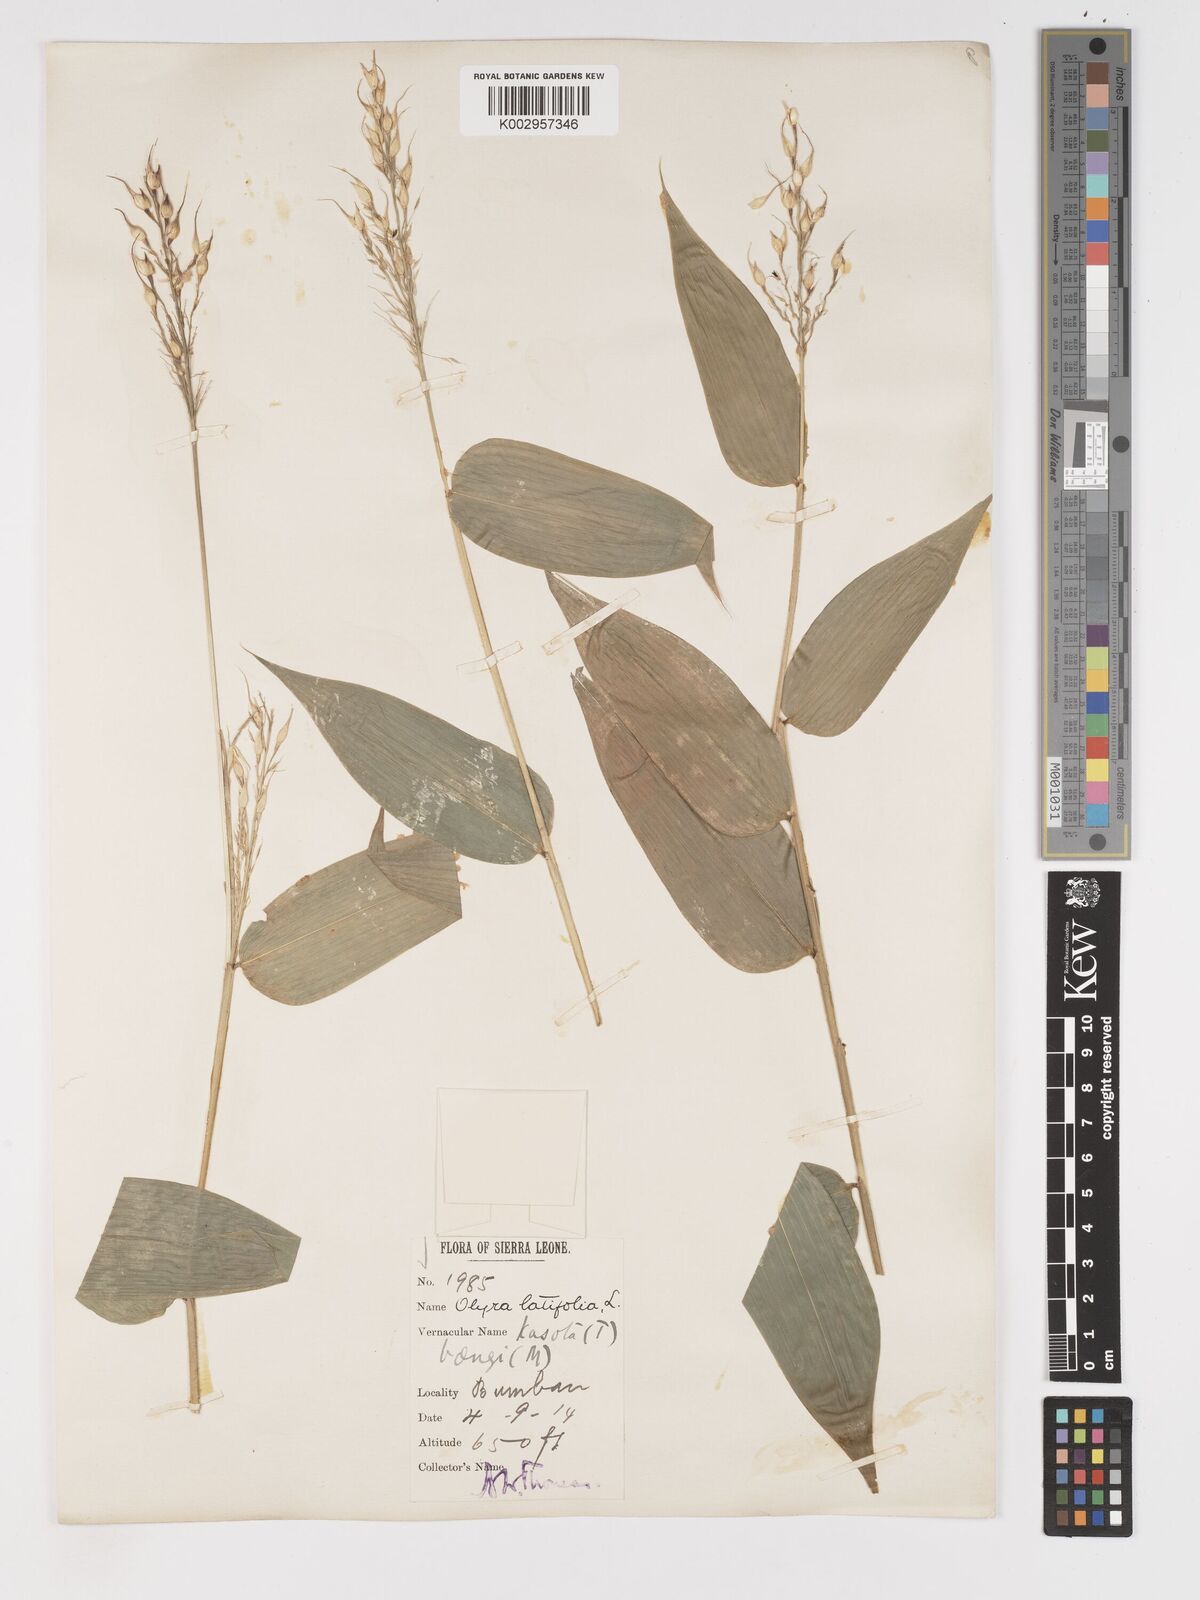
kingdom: Plantae
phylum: Tracheophyta
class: Liliopsida
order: Poales
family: Poaceae
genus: Olyra
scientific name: Olyra latifolia
